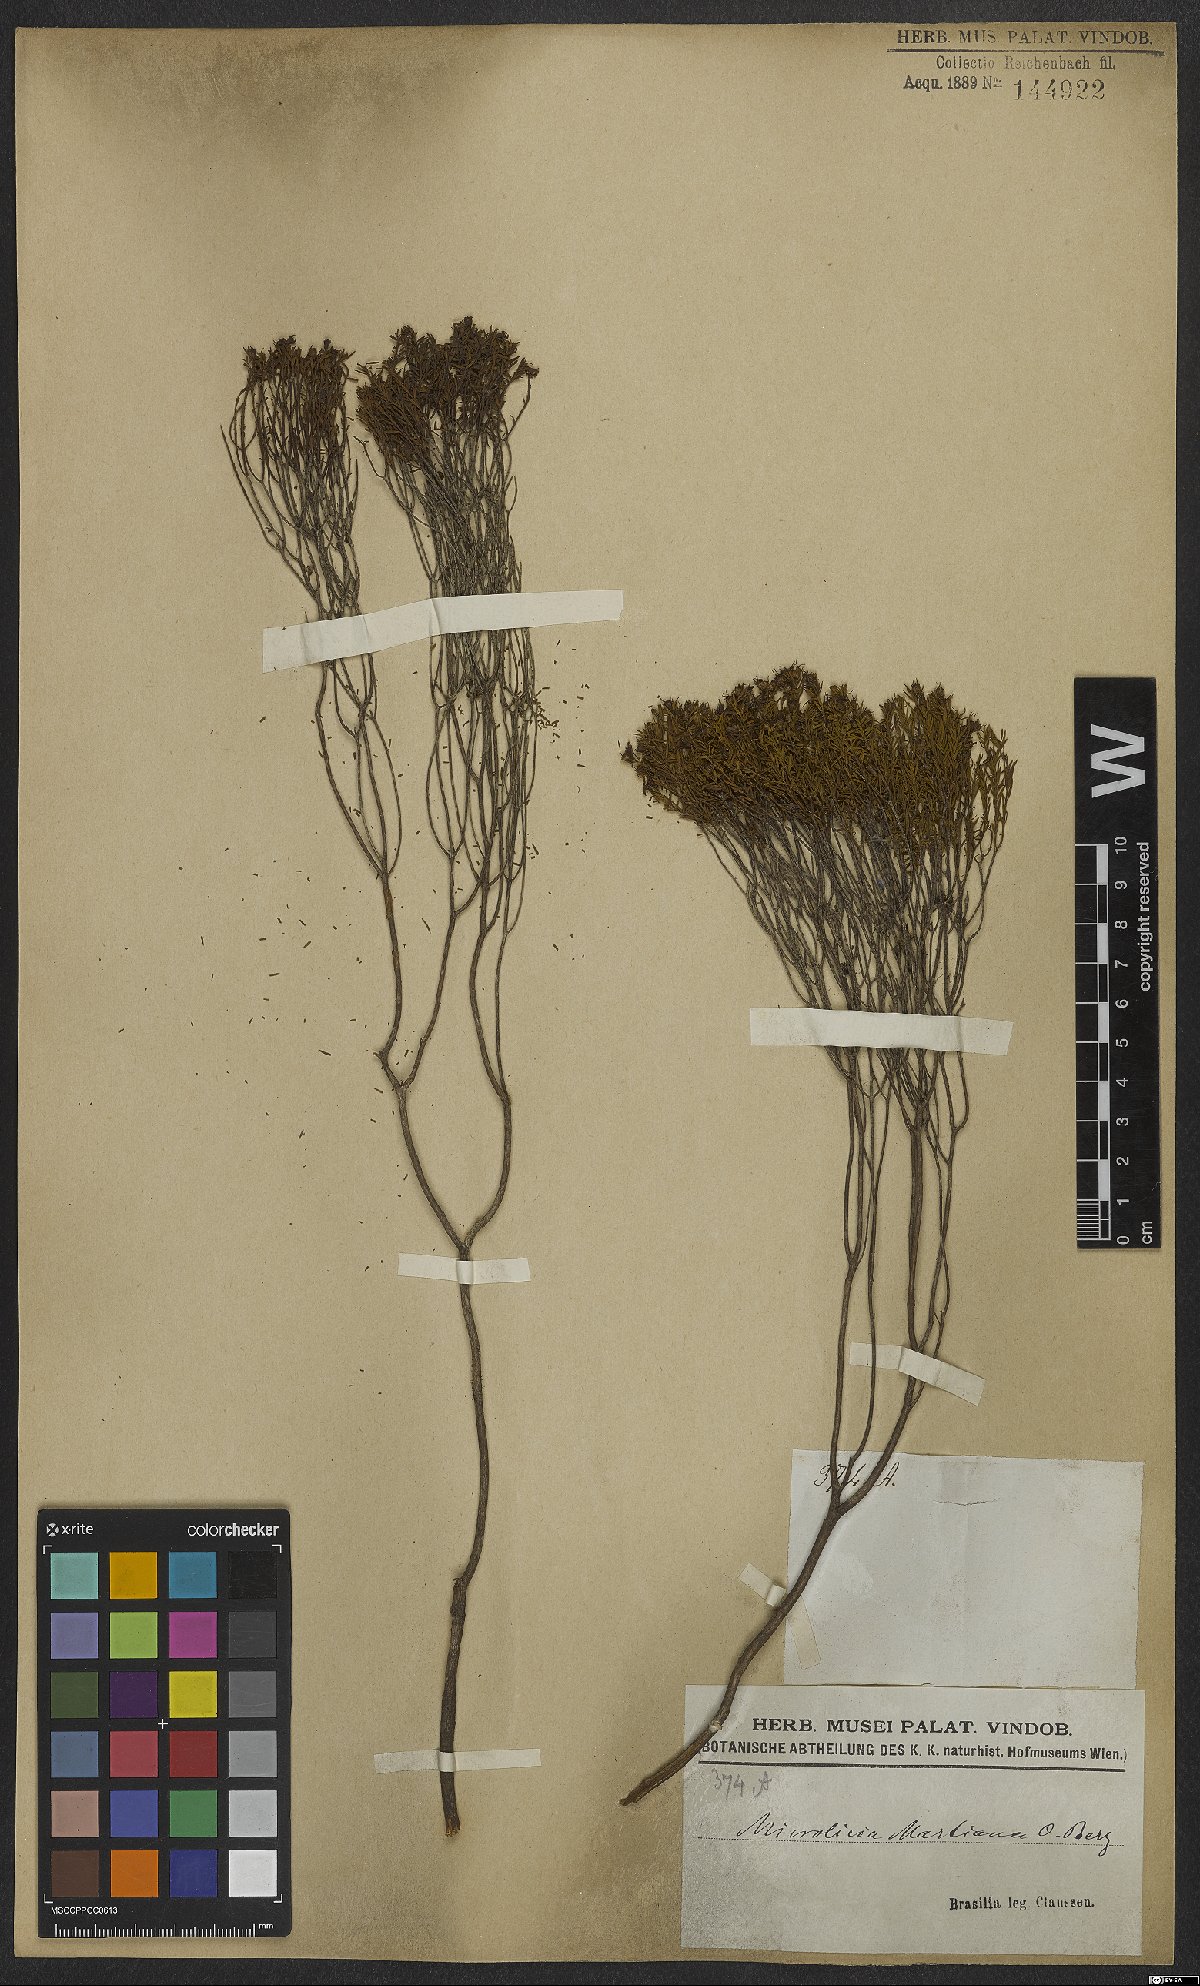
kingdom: Plantae
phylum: Tracheophyta
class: Magnoliopsida
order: Myrtales
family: Melastomataceae
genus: Microlicia
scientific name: Microlicia martiana
